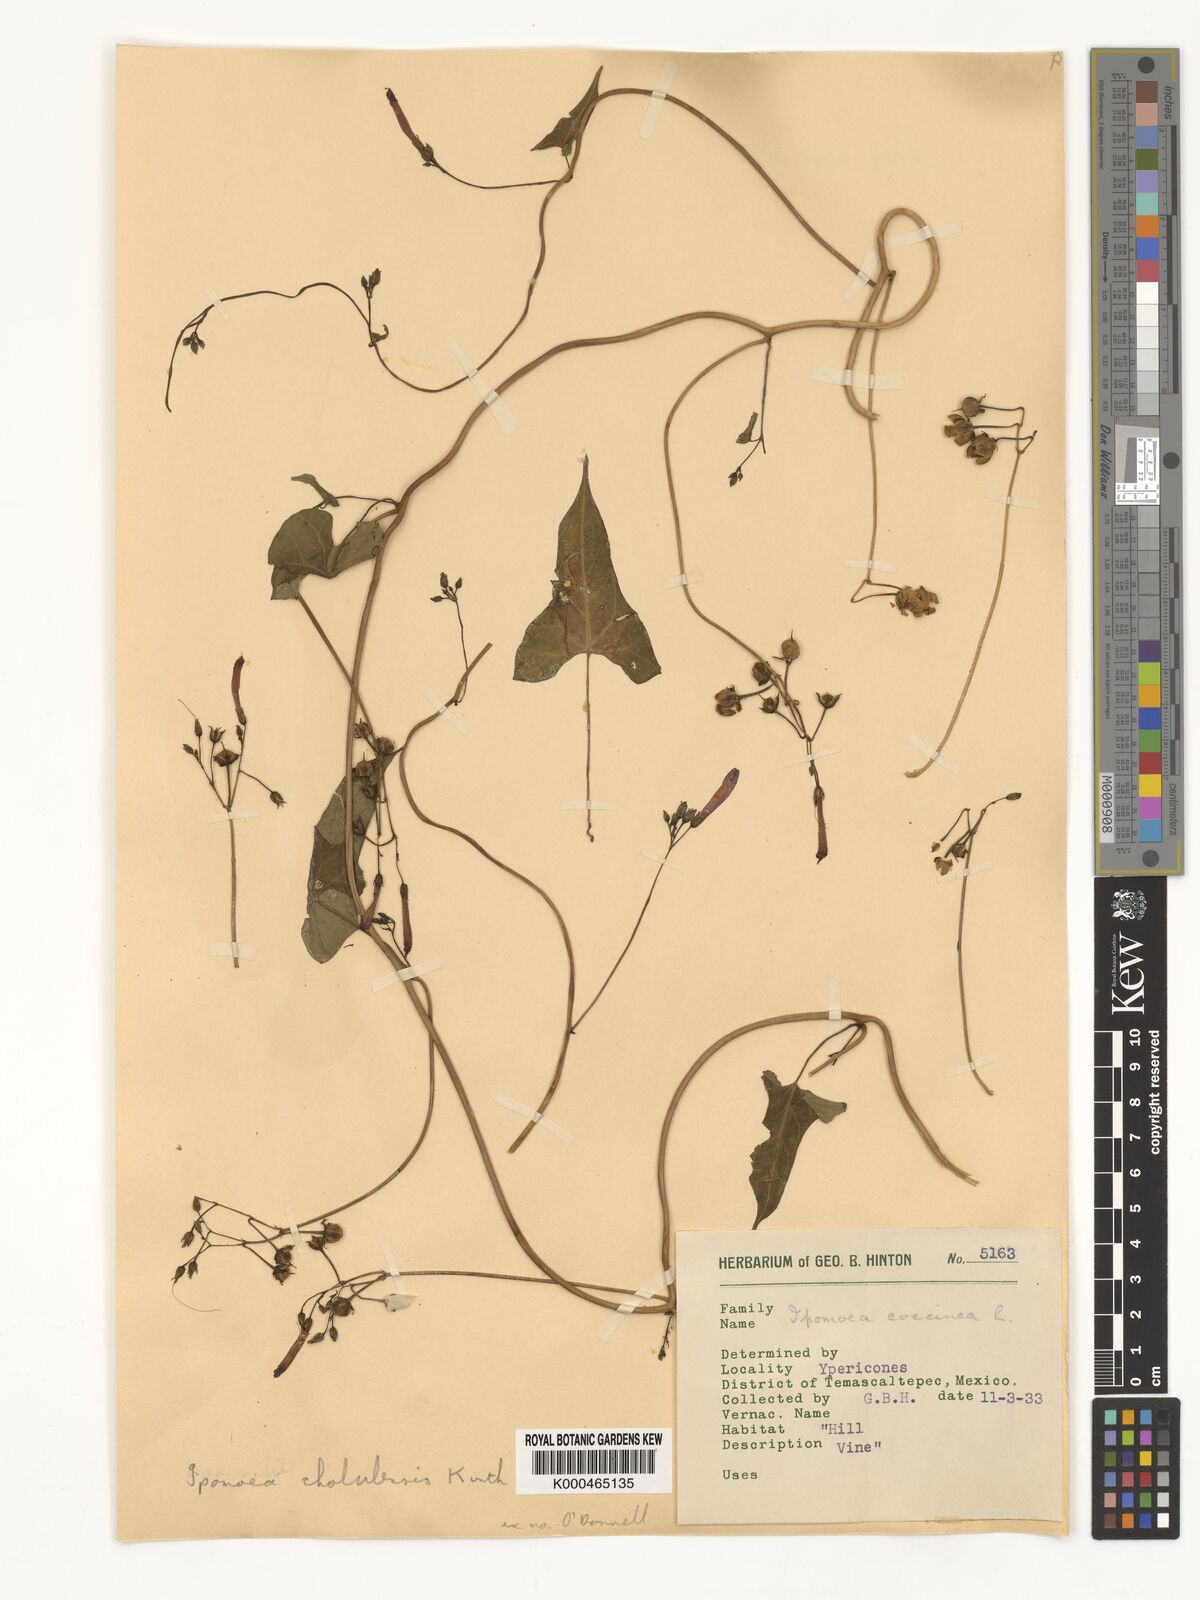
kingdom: Plantae
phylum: Tracheophyta
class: Magnoliopsida
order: Solanales
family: Convolvulaceae
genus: Ipomoea
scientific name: Ipomoea cholulensis
